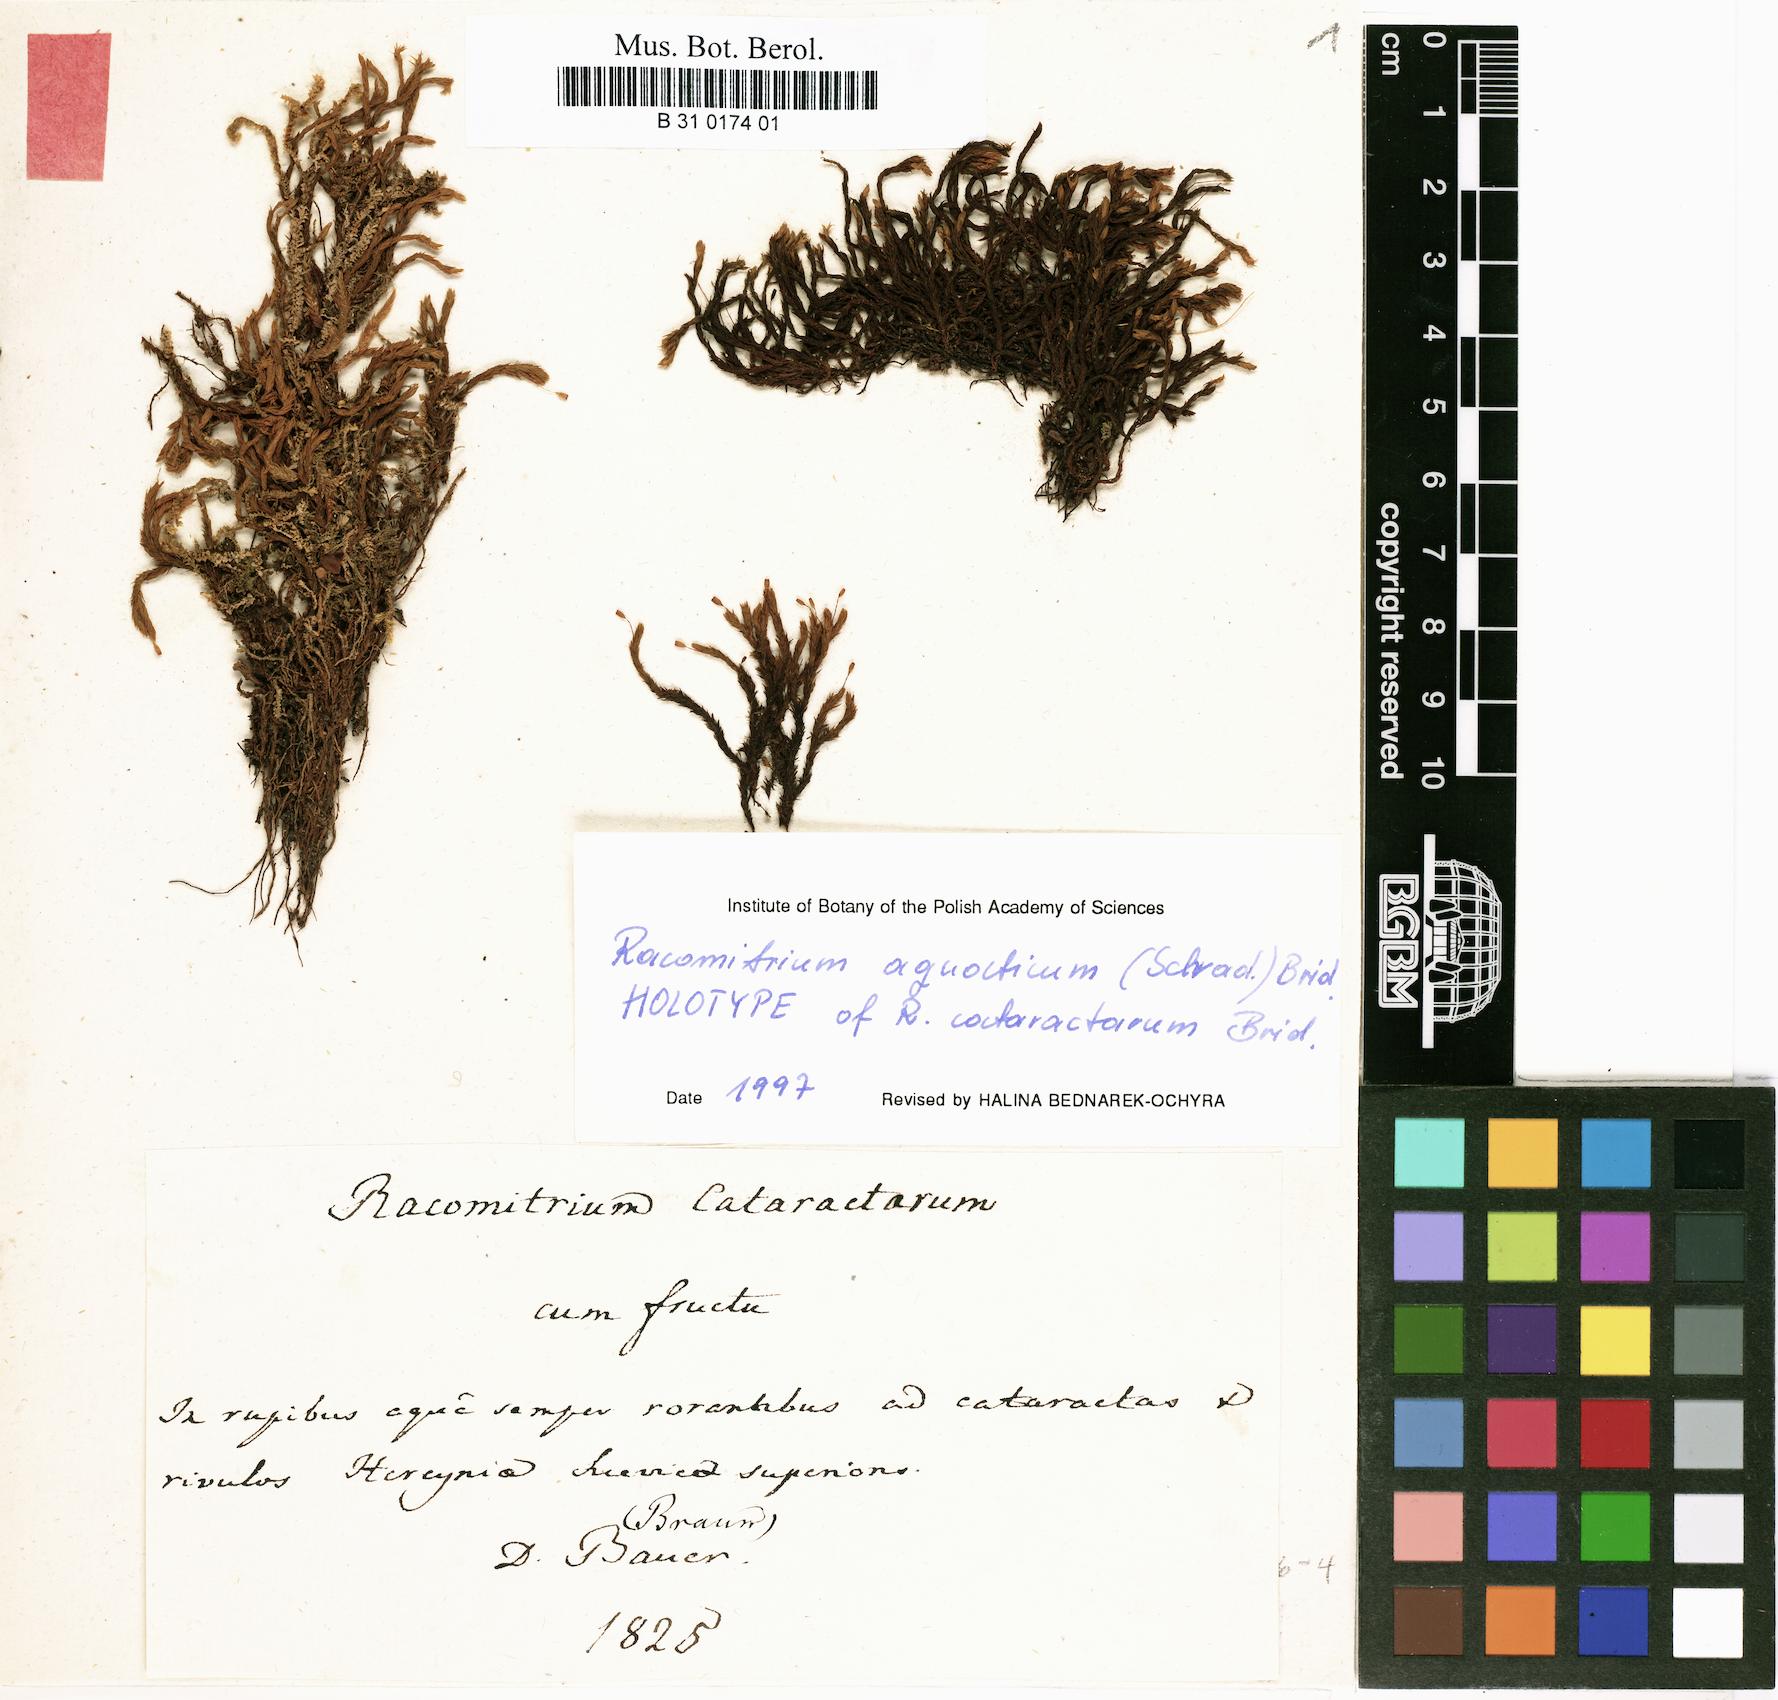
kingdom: Plantae
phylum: Bryophyta
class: Bryopsida
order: Grimmiales
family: Grimmiaceae
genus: Codriophorus
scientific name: Codriophorus aquaticus
